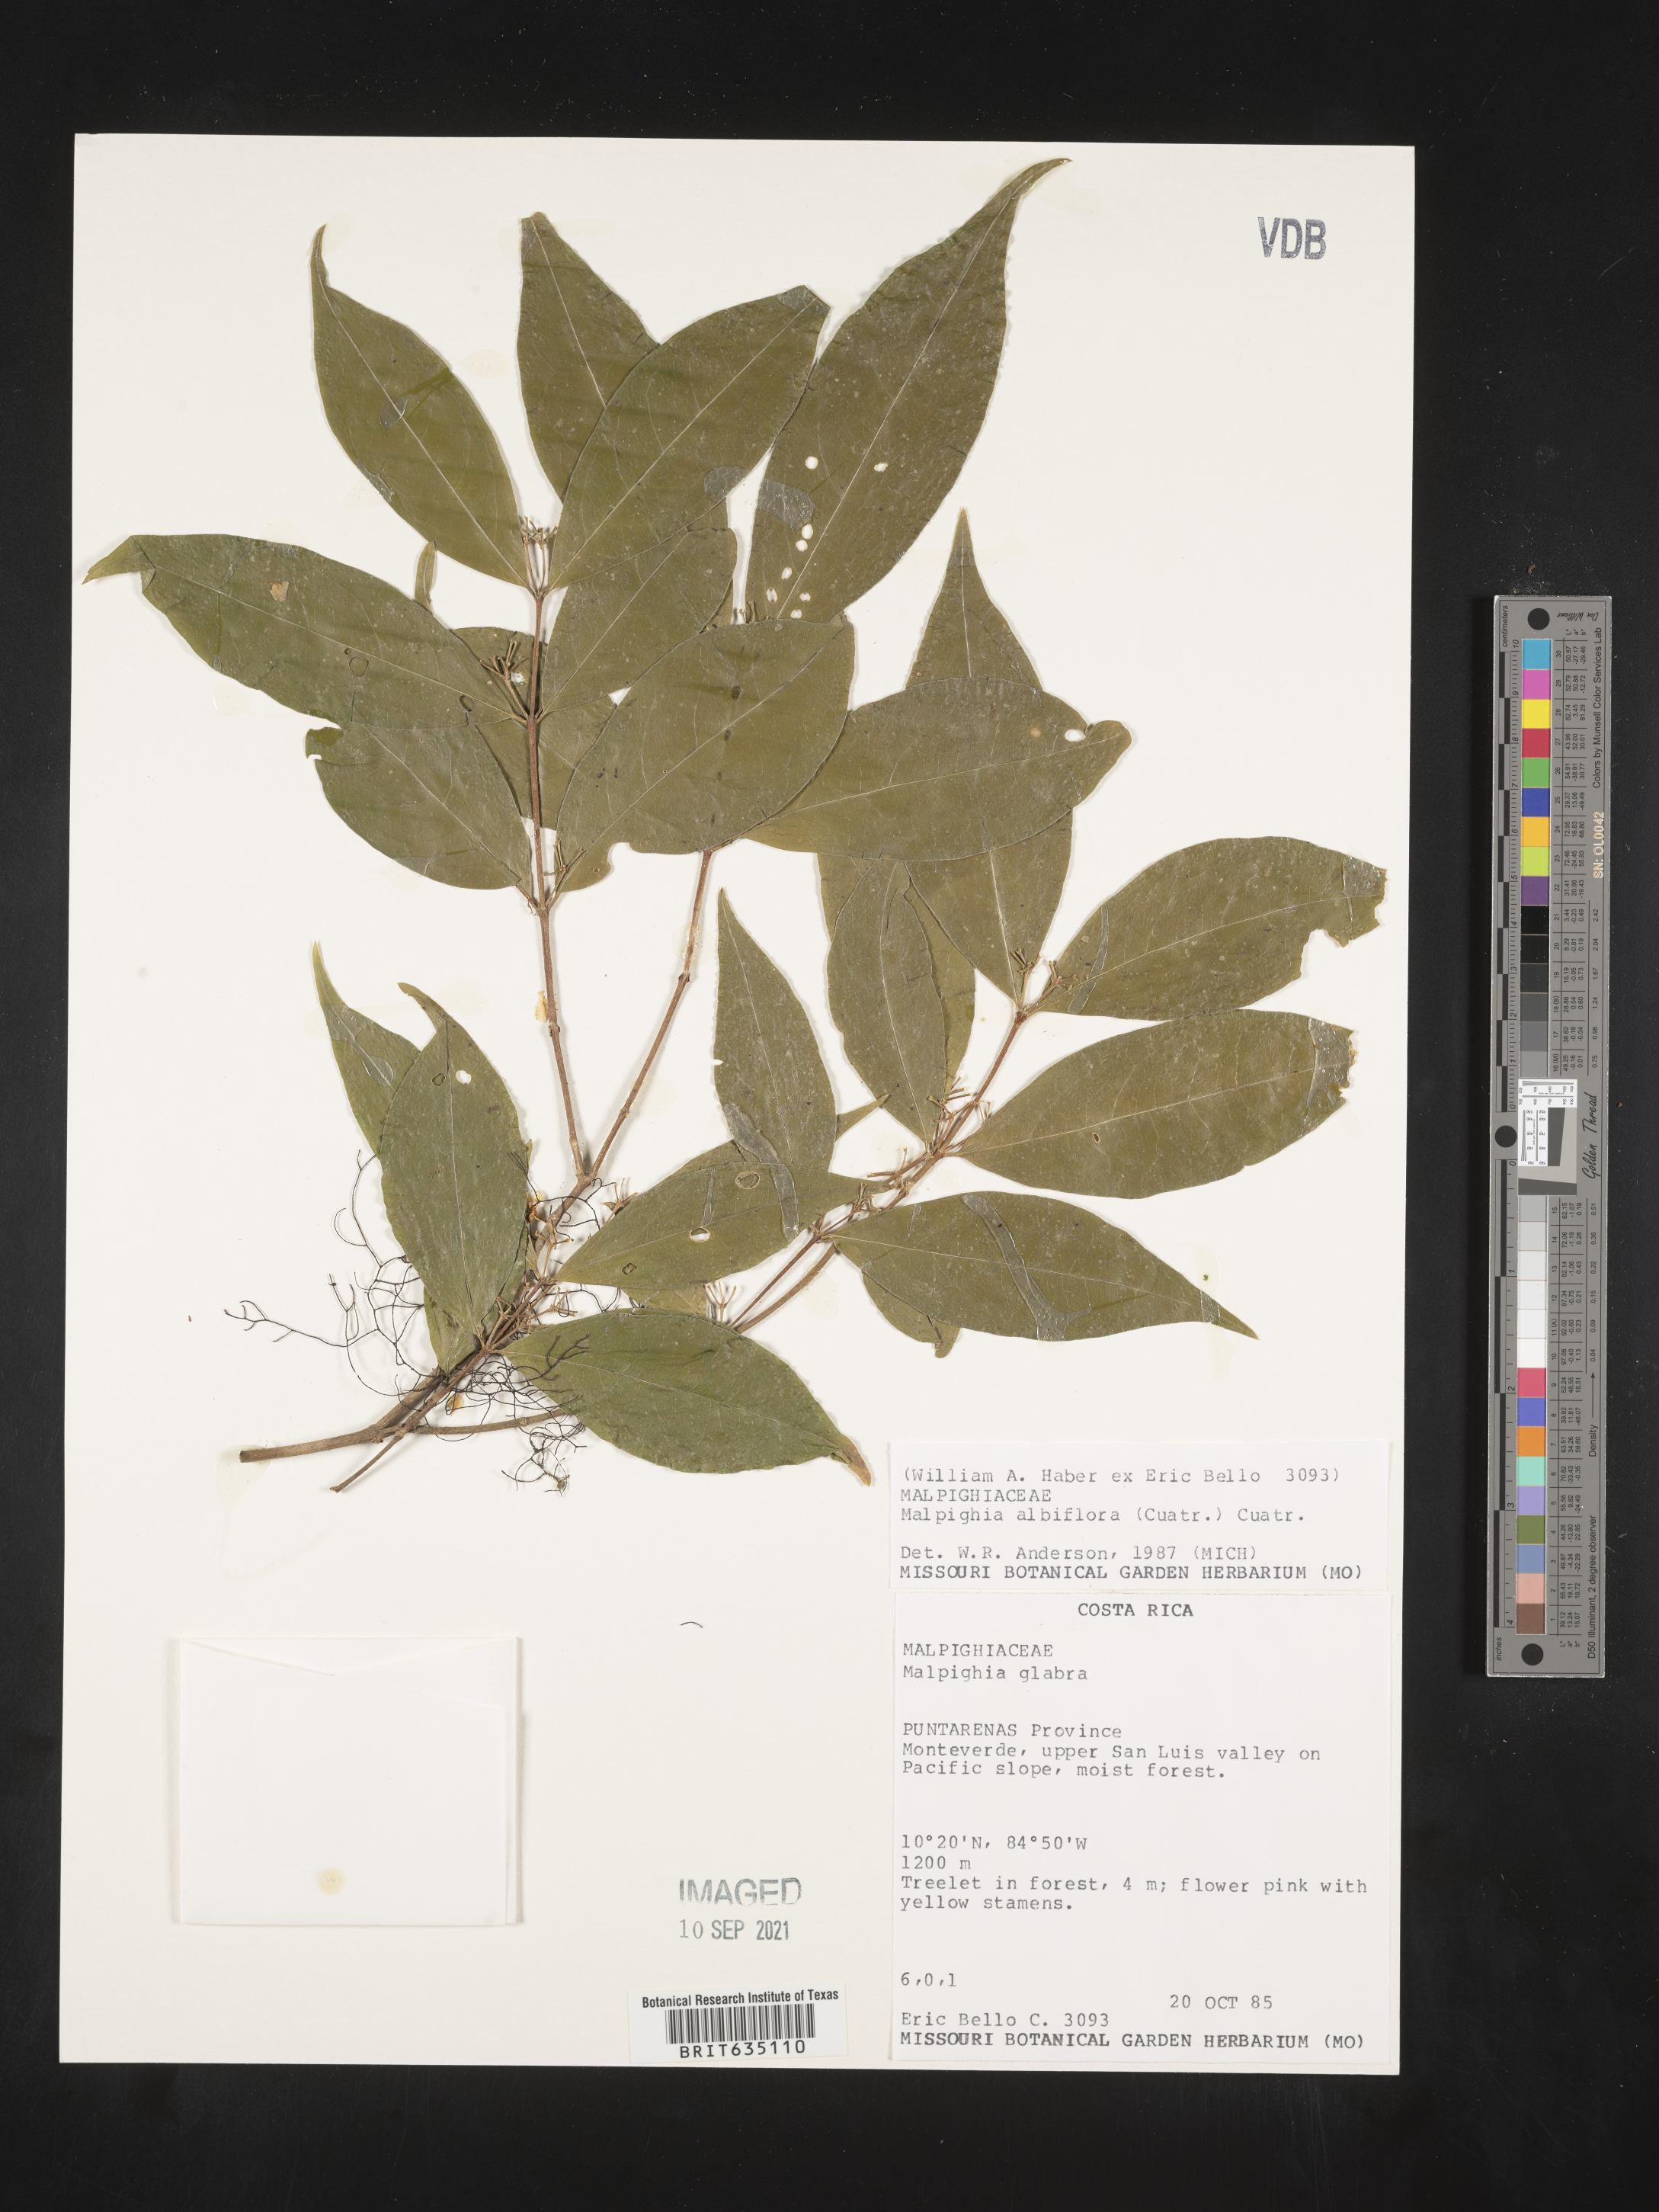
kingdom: Plantae
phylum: Tracheophyta
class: Magnoliopsida
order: Malpighiales
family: Malpighiaceae
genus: Malpighia
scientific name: Malpighia
